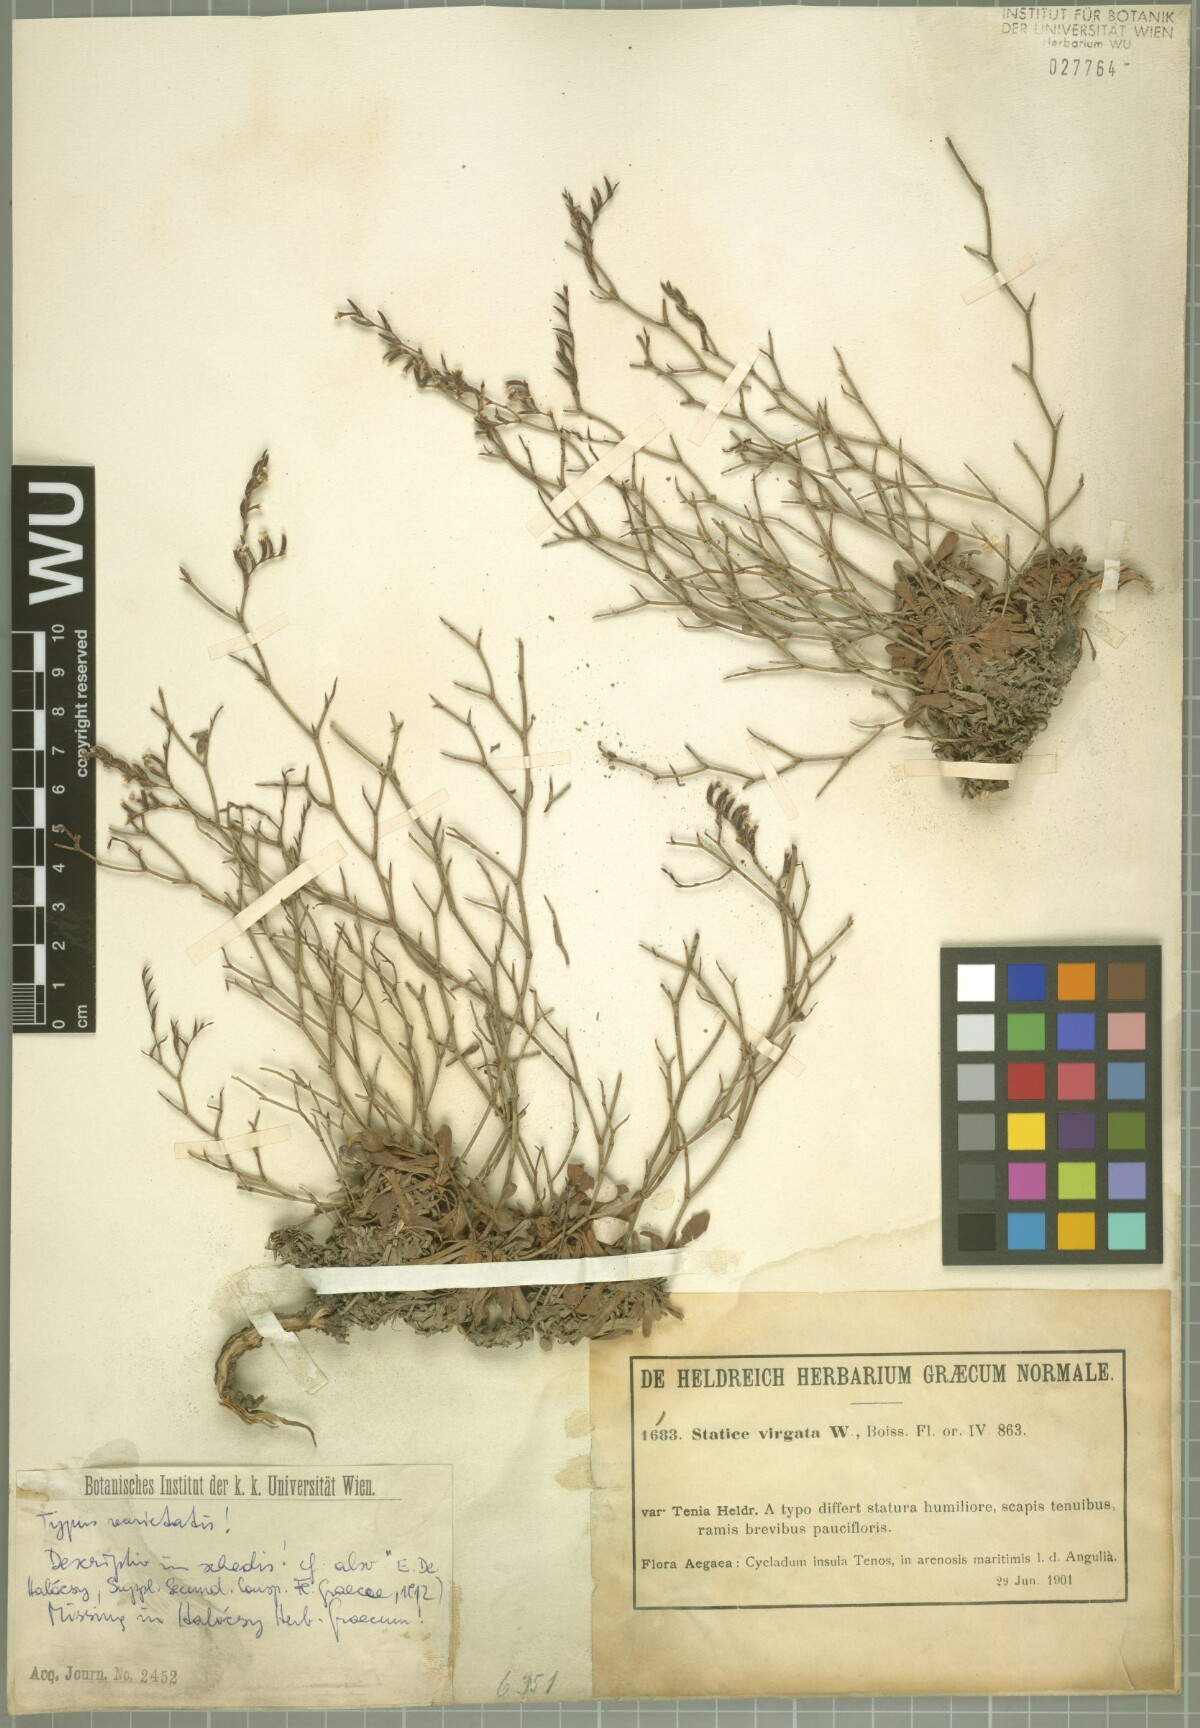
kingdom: Plantae
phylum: Tracheophyta
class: Magnoliopsida
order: Caryophyllales
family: Plumbaginaceae
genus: Limonium
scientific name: Limonium virgatum
